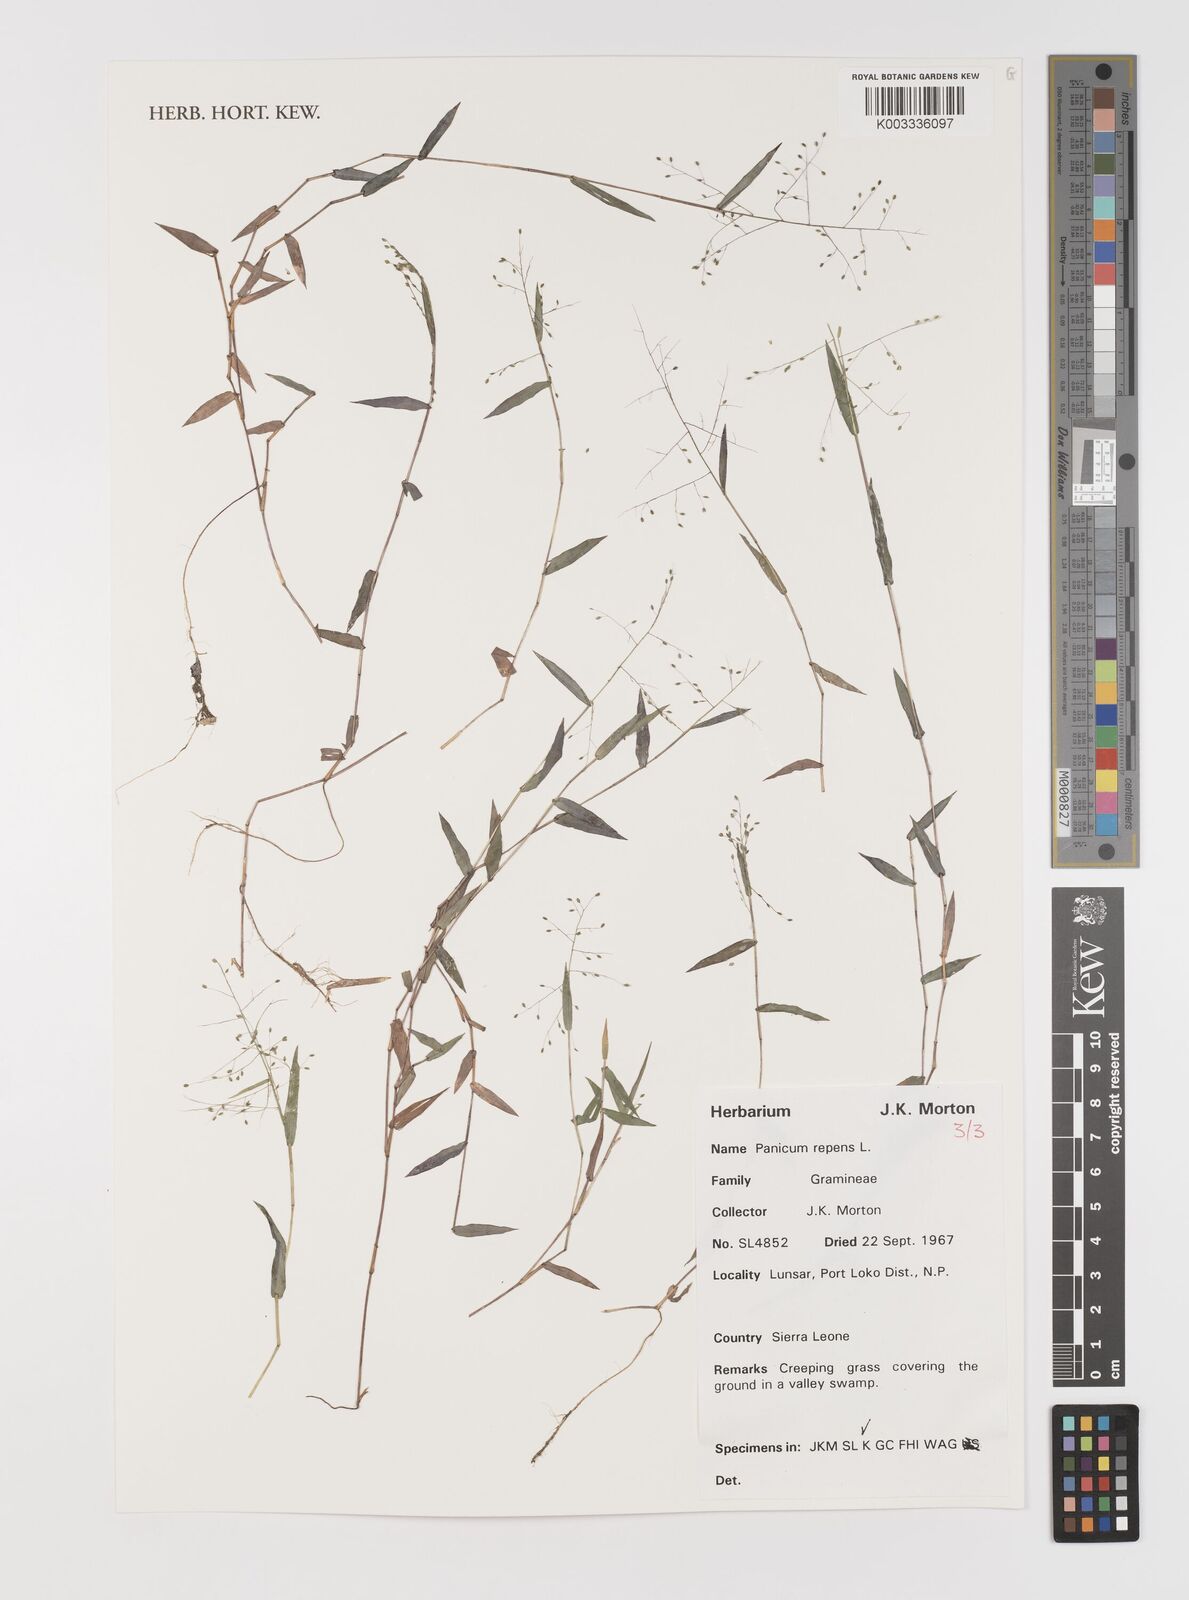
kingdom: Plantae
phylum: Tracheophyta
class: Liliopsida
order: Poales
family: Poaceae
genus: Panicum
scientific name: Panicum repens
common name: Torpedo grass
